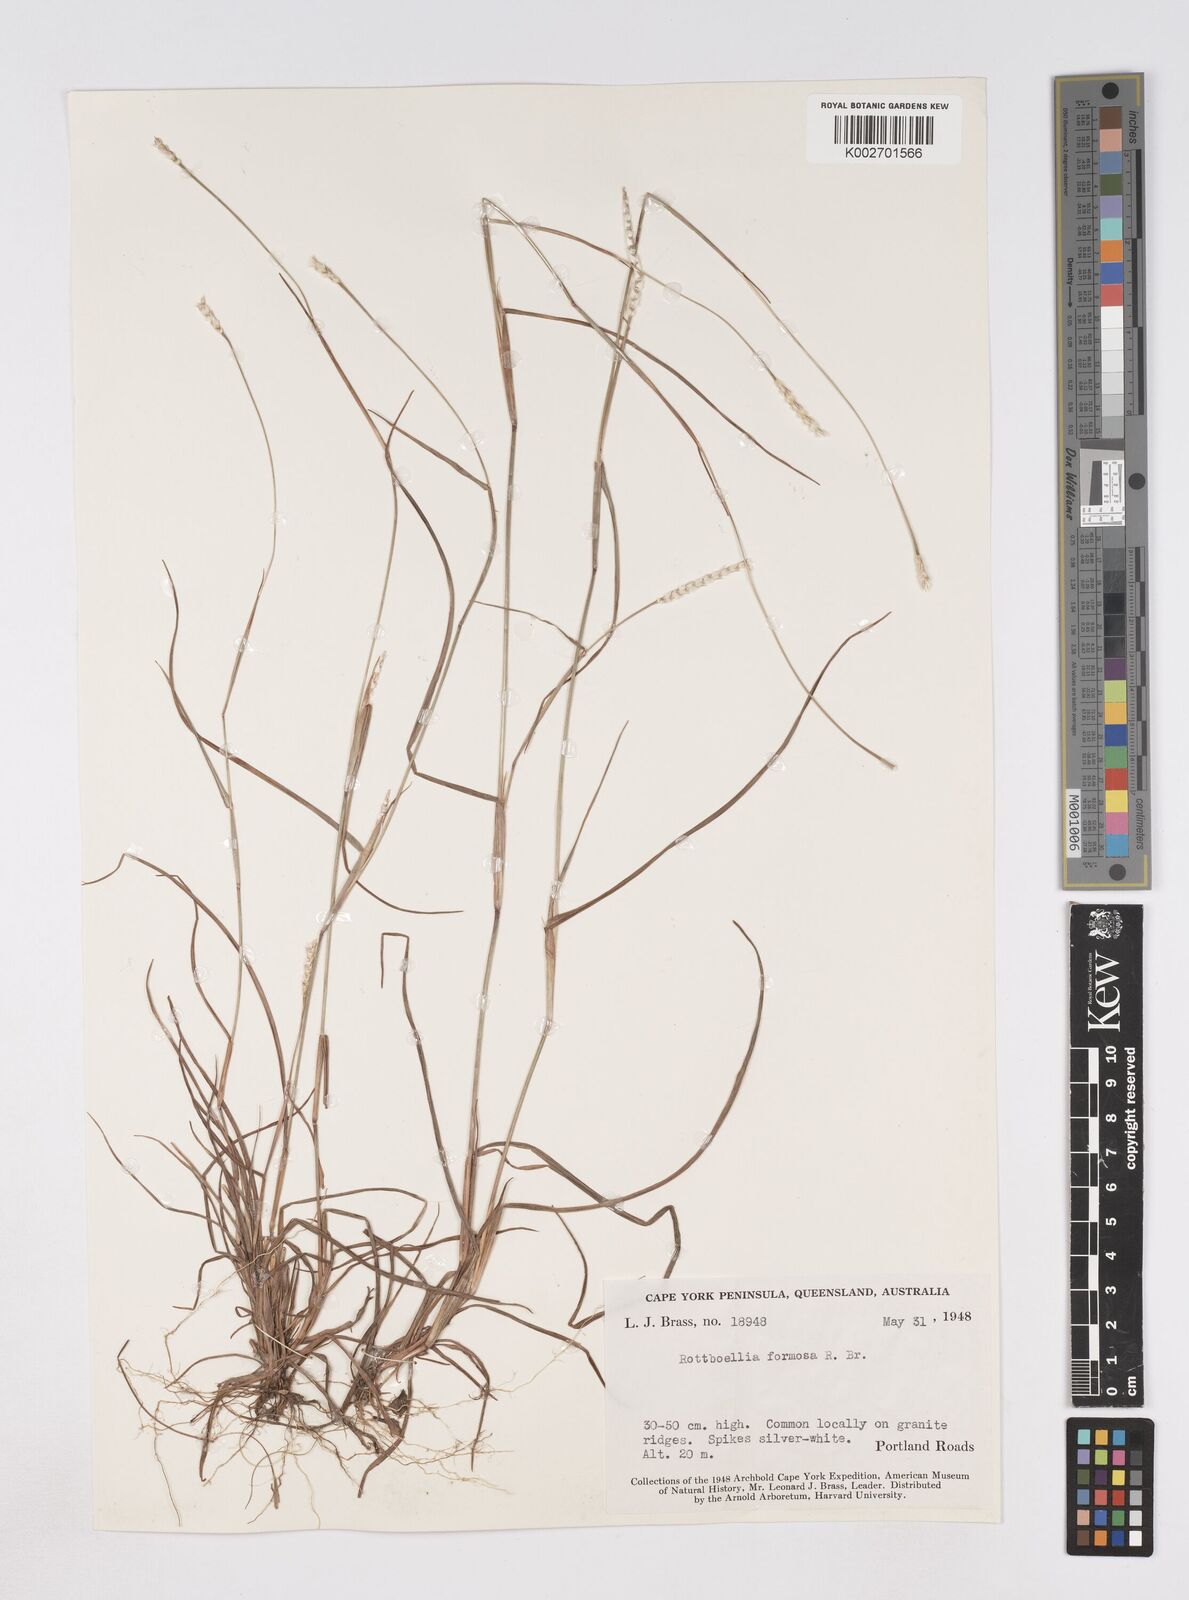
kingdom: Plantae
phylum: Tracheophyta
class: Liliopsida
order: Poales
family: Poaceae
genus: Heteropholis
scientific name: Heteropholis
